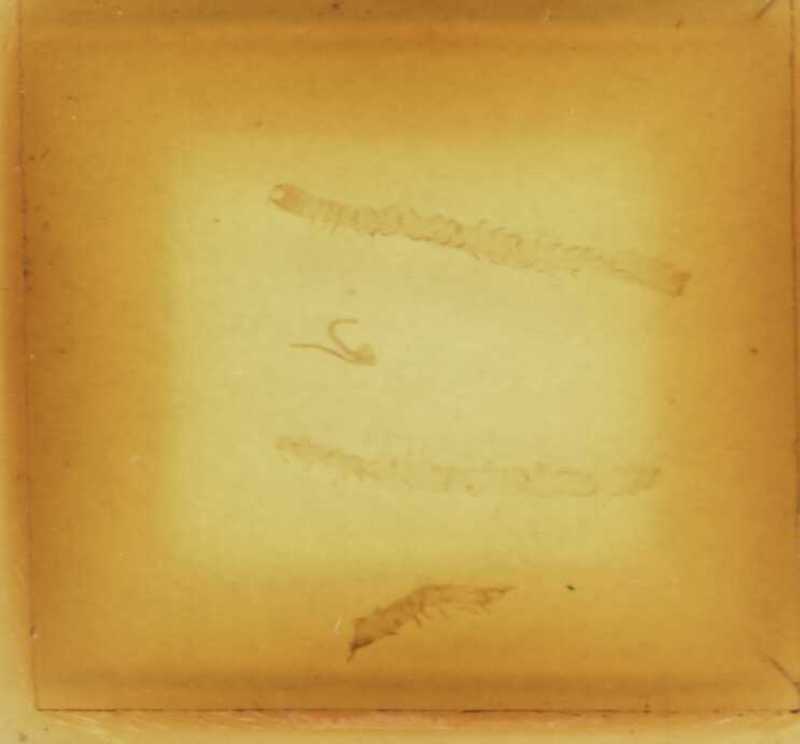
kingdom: Animalia
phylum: Arthropoda
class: Chilopoda
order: Geophilomorpha
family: Geophilidae
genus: Clinopodes
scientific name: Clinopodes flavidus
